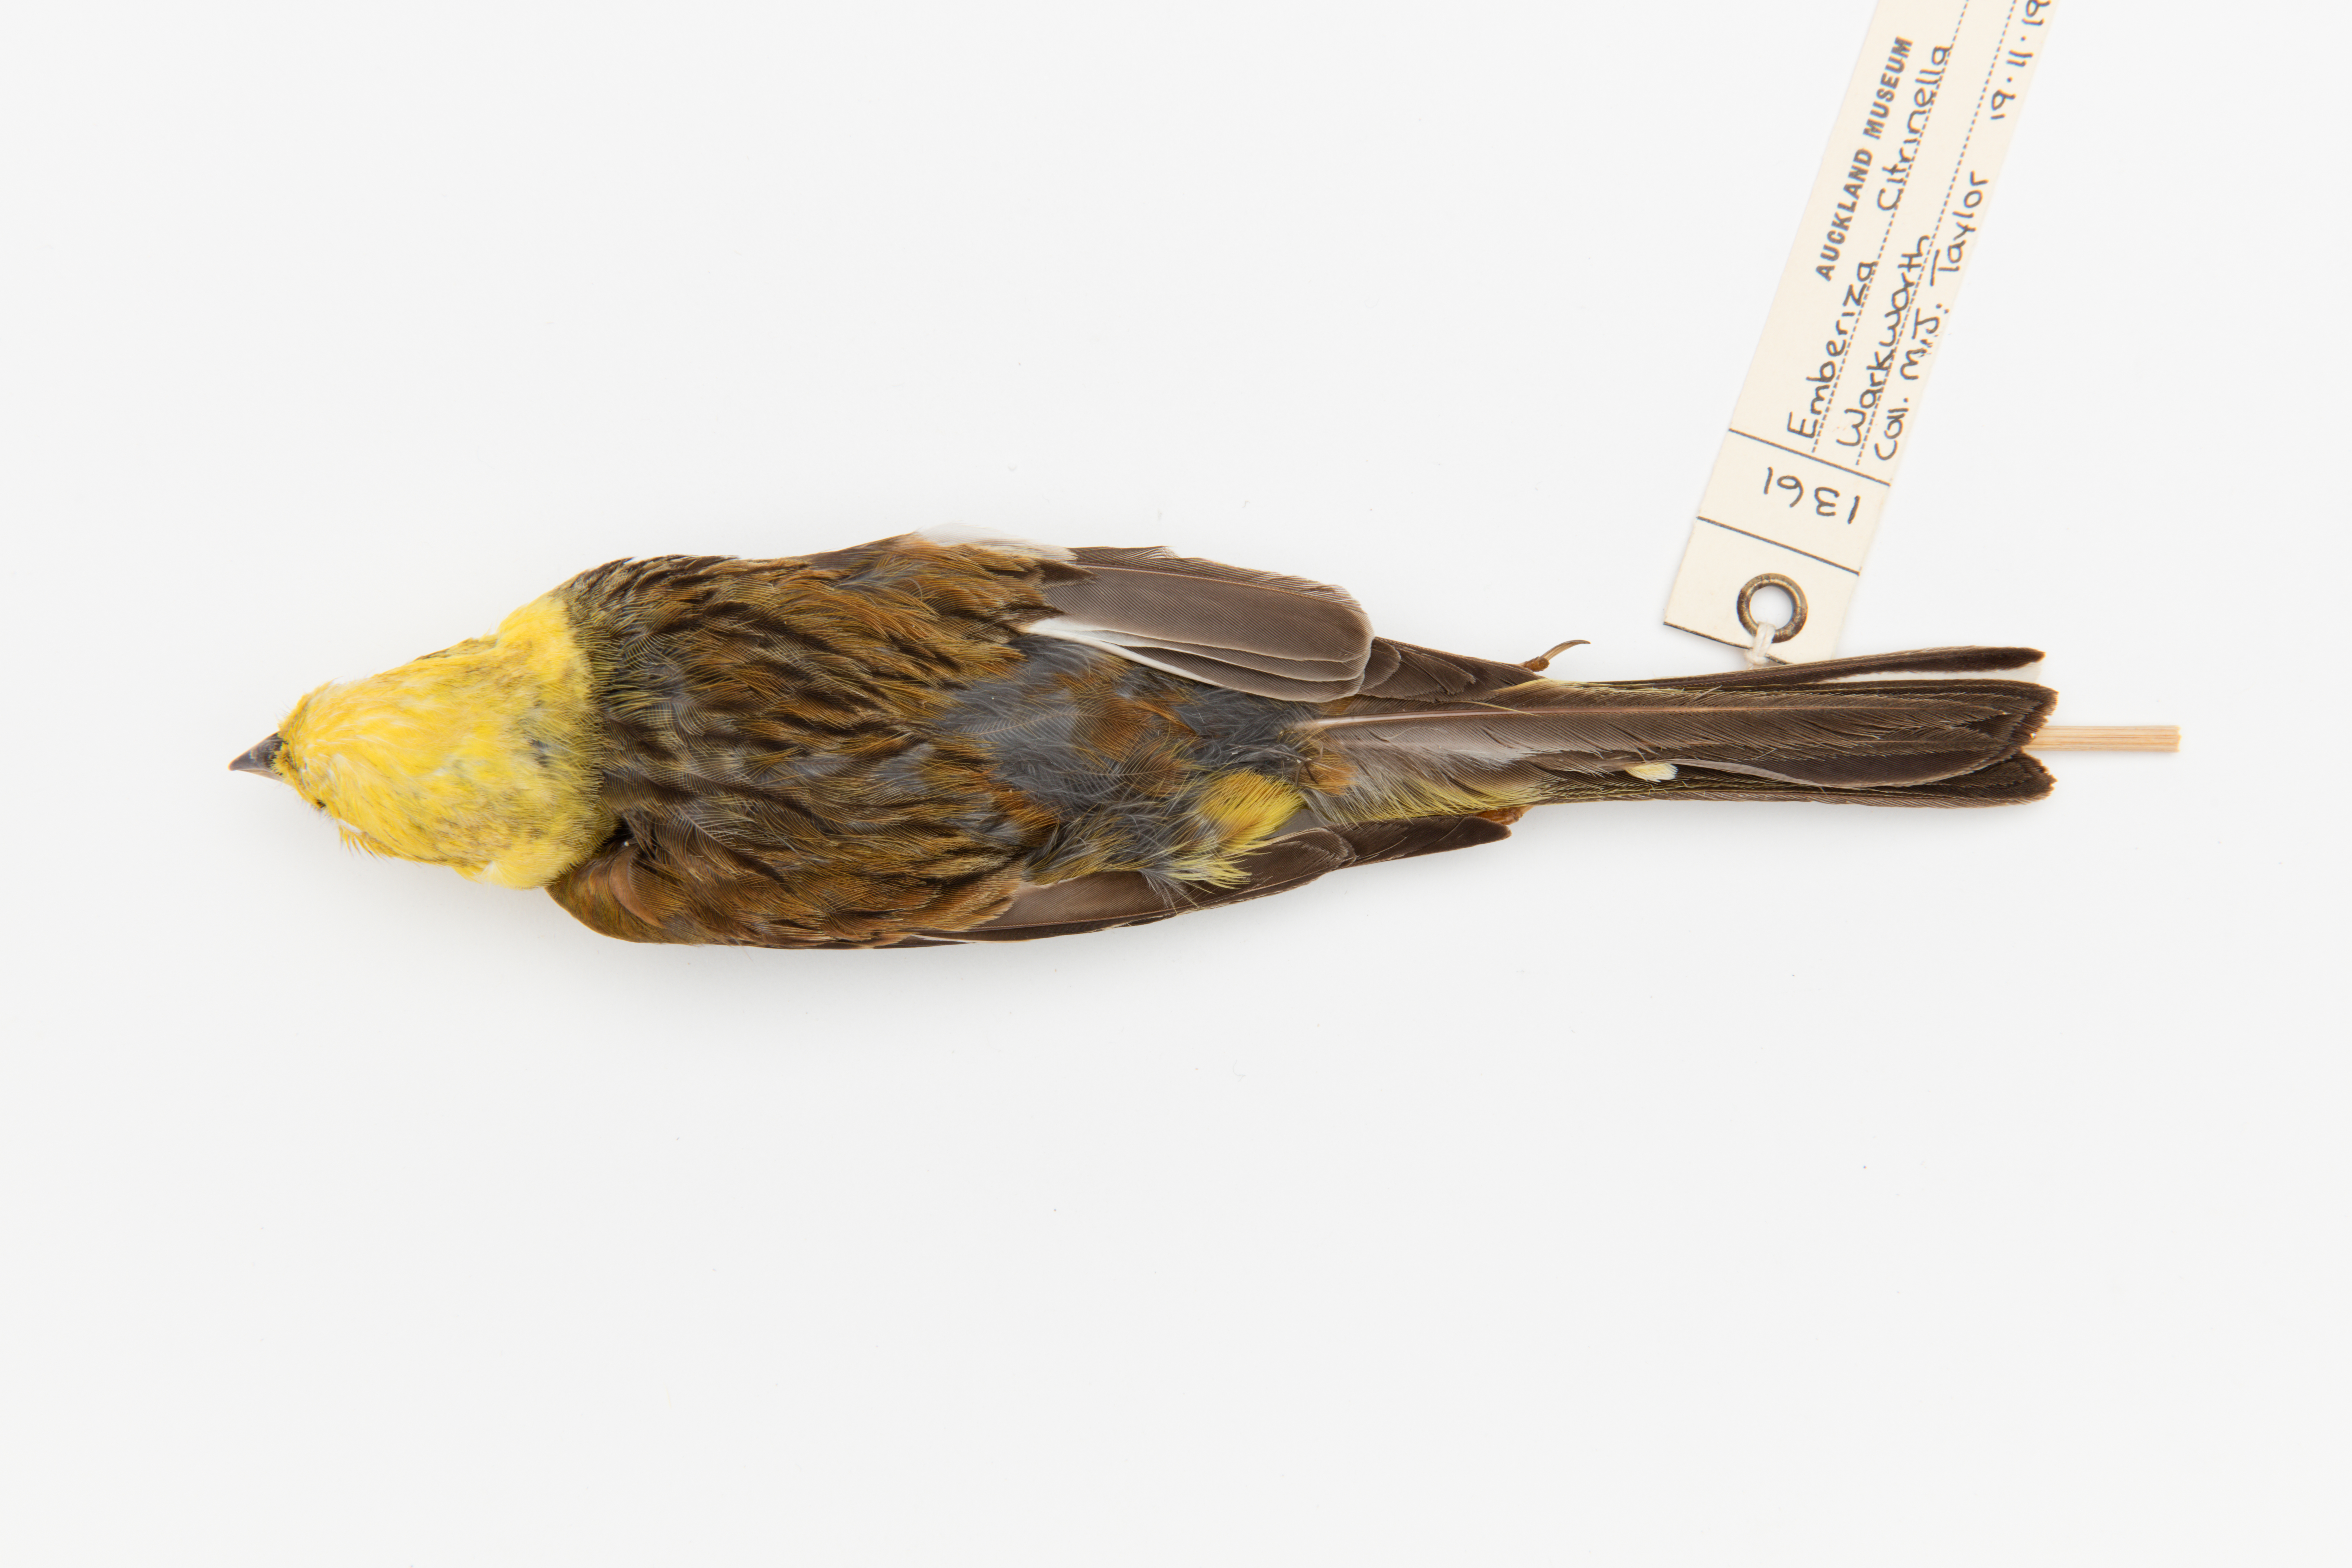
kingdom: Animalia
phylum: Chordata
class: Aves
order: Passeriformes
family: Emberizidae
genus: Emberiza
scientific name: Emberiza citrinella
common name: Yellowhammer
